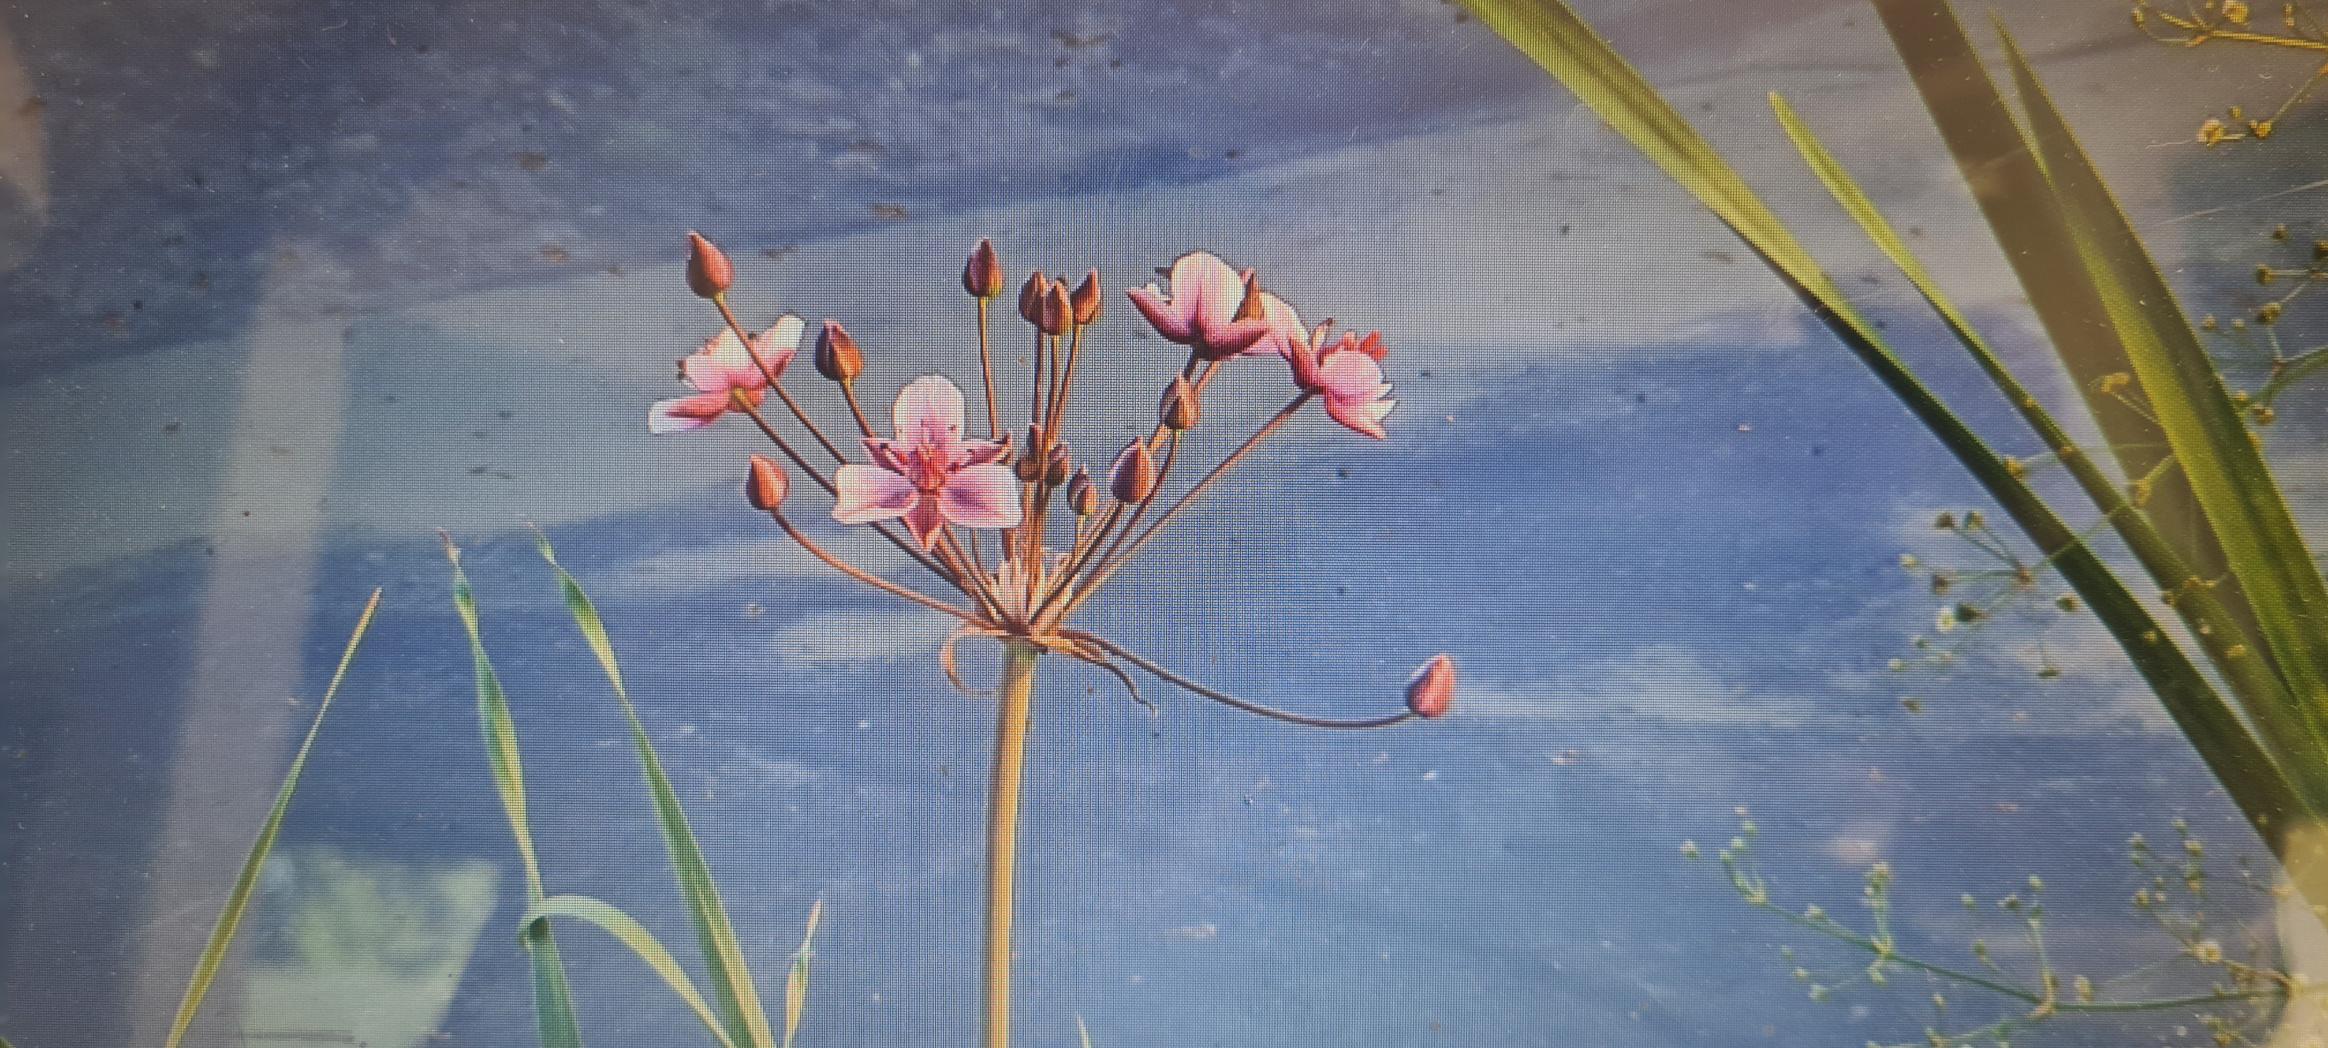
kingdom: Plantae
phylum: Tracheophyta
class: Liliopsida
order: Alismatales
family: Butomaceae
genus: Butomus
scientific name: Butomus umbellatus
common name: Brudelys
